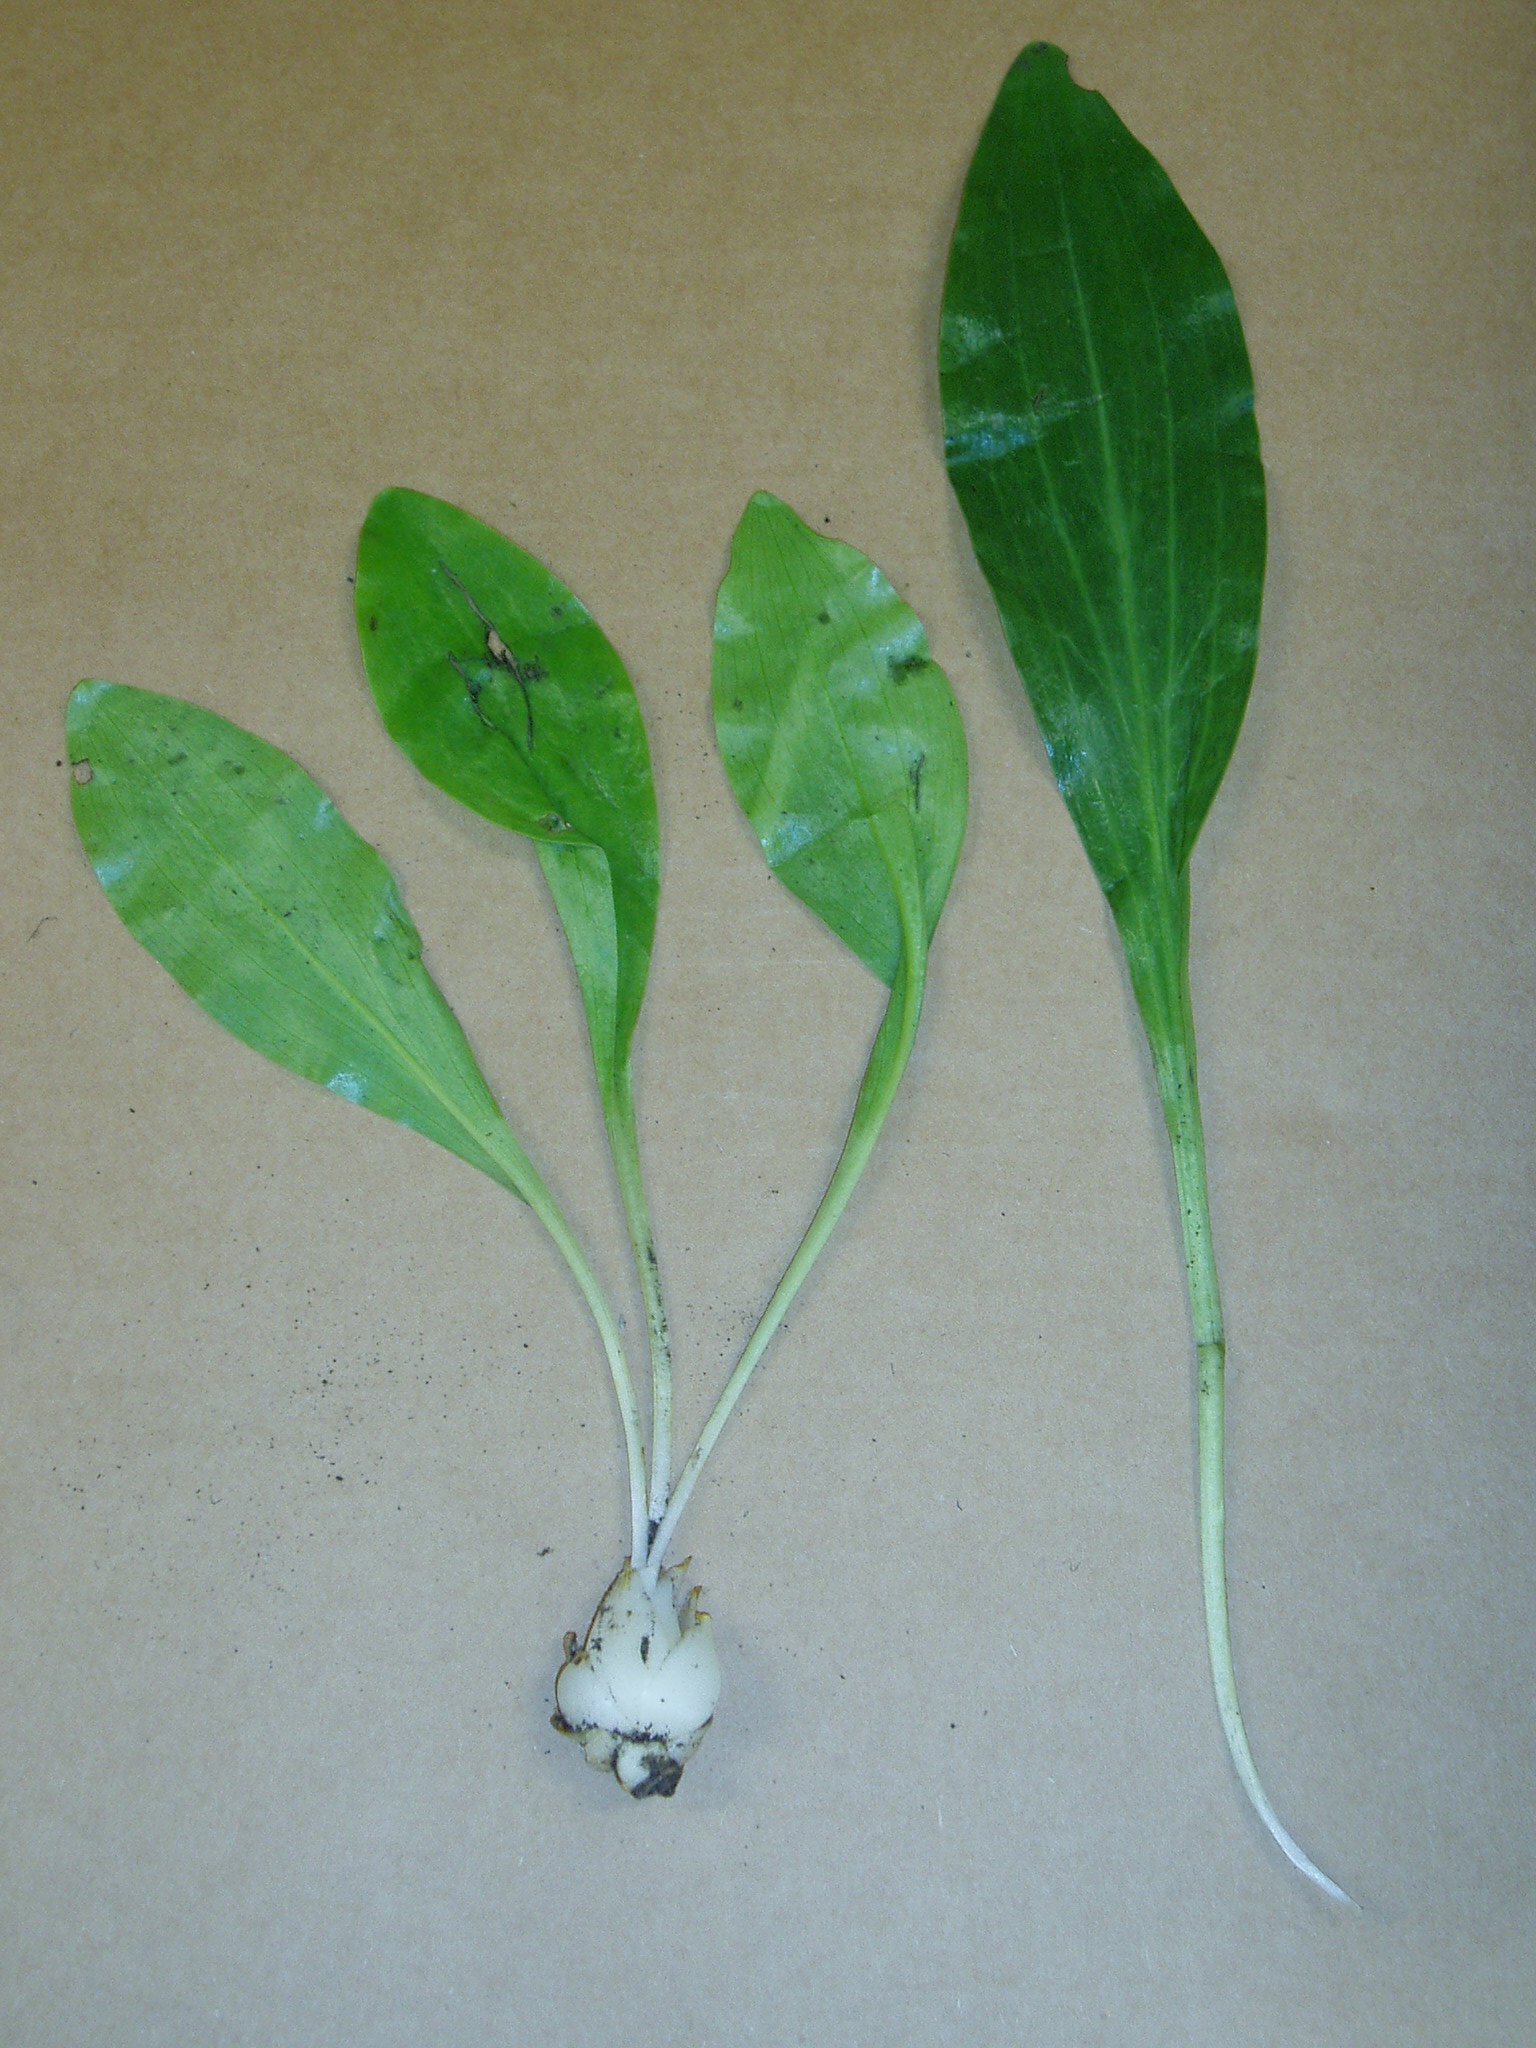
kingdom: Plantae
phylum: Tracheophyta
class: Liliopsida
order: Liliales
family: Liliaceae
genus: Lilium
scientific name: Lilium candidum
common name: Madonna lily
